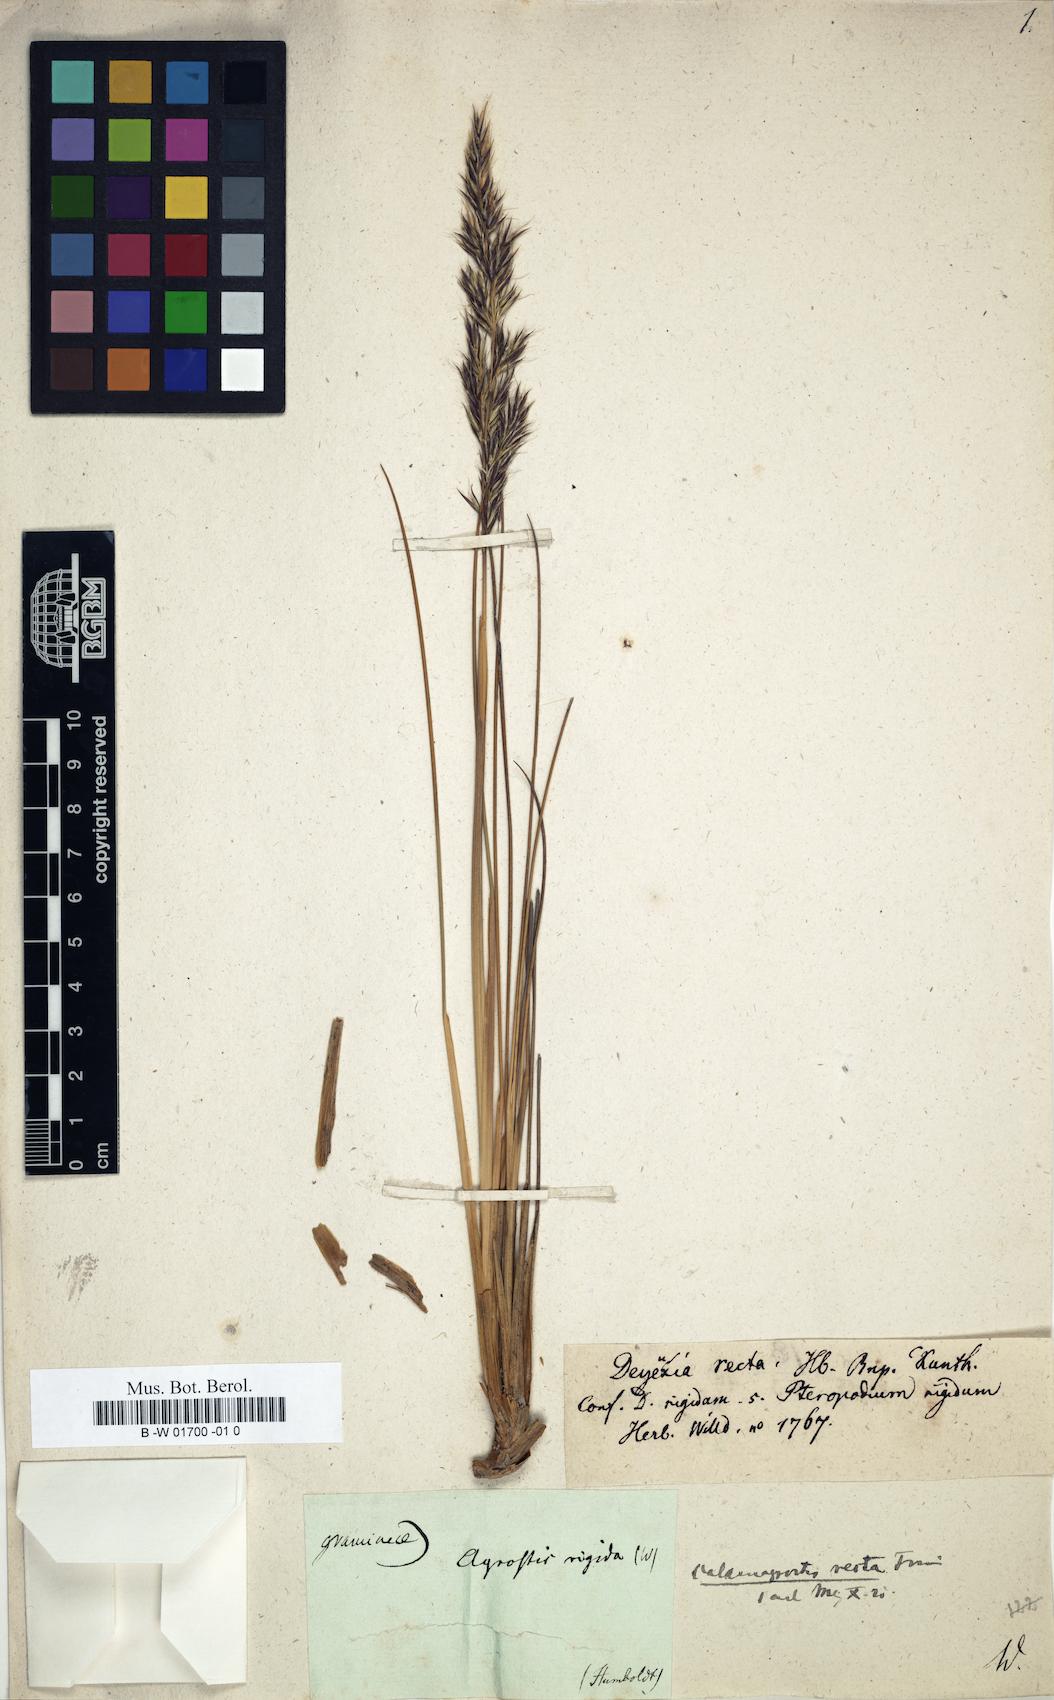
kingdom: Plantae
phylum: Tracheophyta
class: Liliopsida
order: Poales
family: Poaceae
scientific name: Poaceae
